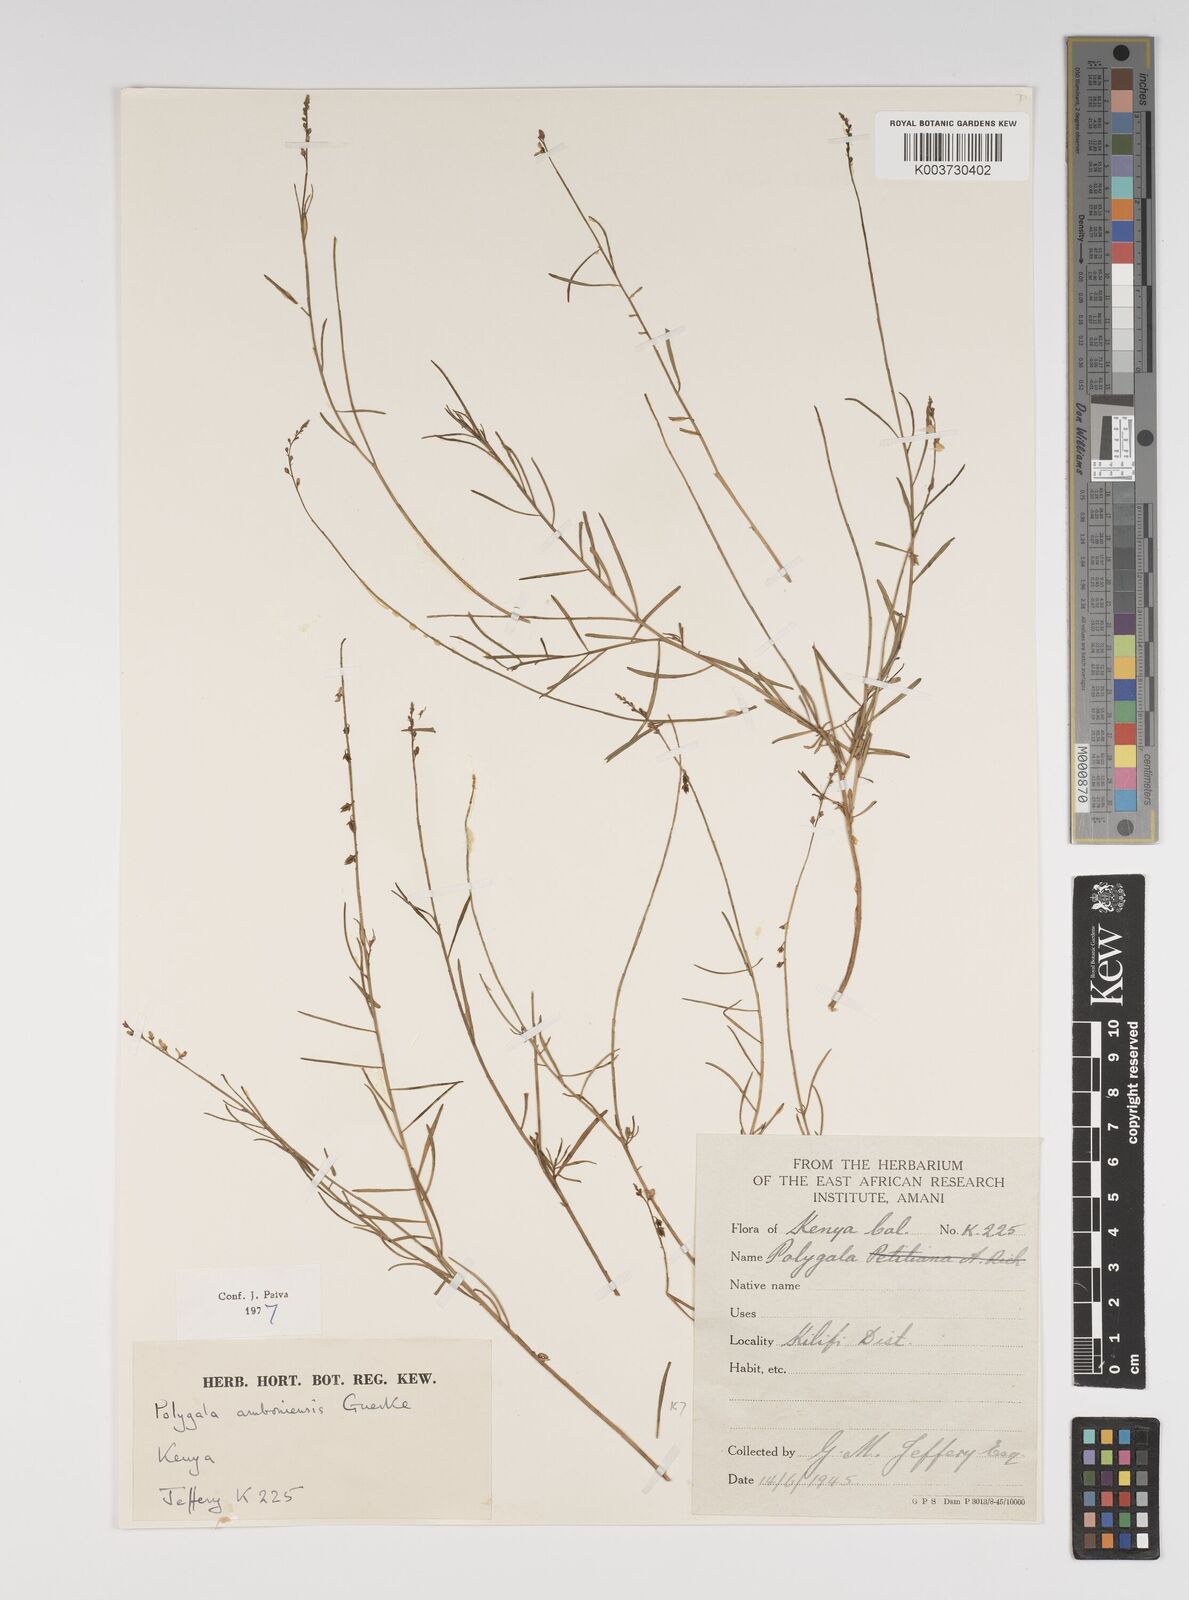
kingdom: Plantae
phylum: Tracheophyta
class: Magnoliopsida
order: Fabales
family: Polygalaceae
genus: Polygala
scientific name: Polygala amboniensis
